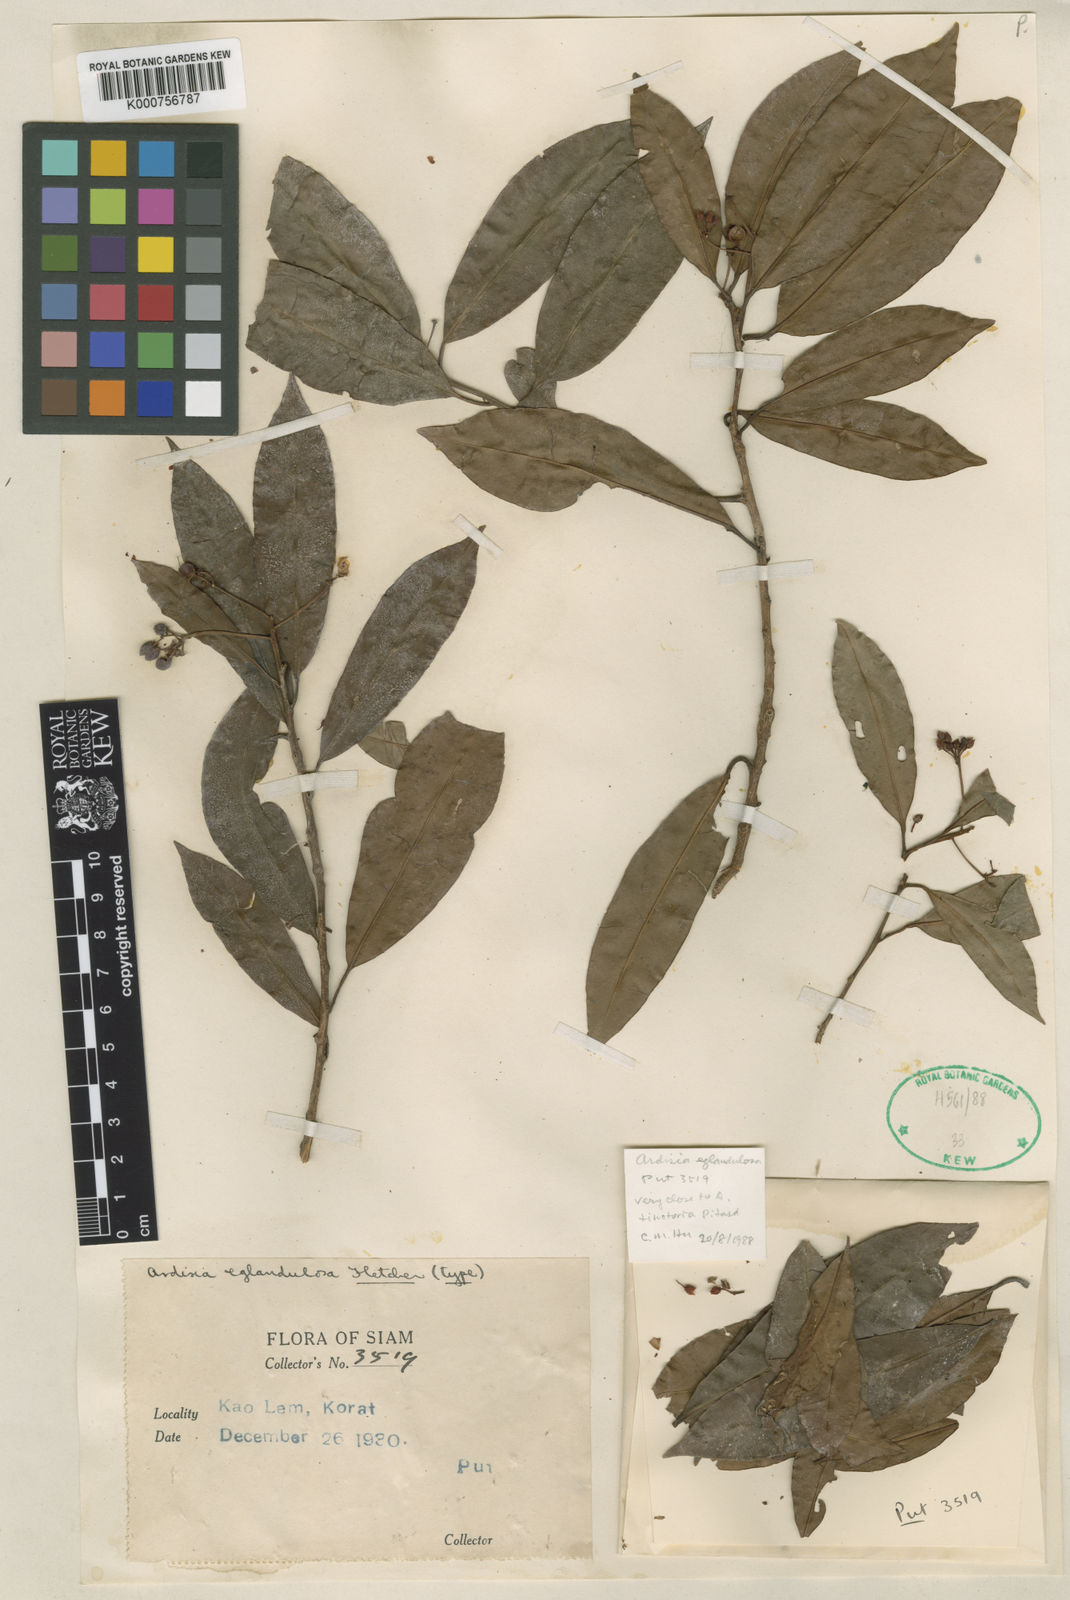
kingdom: Plantae
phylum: Tracheophyta
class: Magnoliopsida
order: Ericales
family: Primulaceae
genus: Ardisia
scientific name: Ardisia eglandulosa
